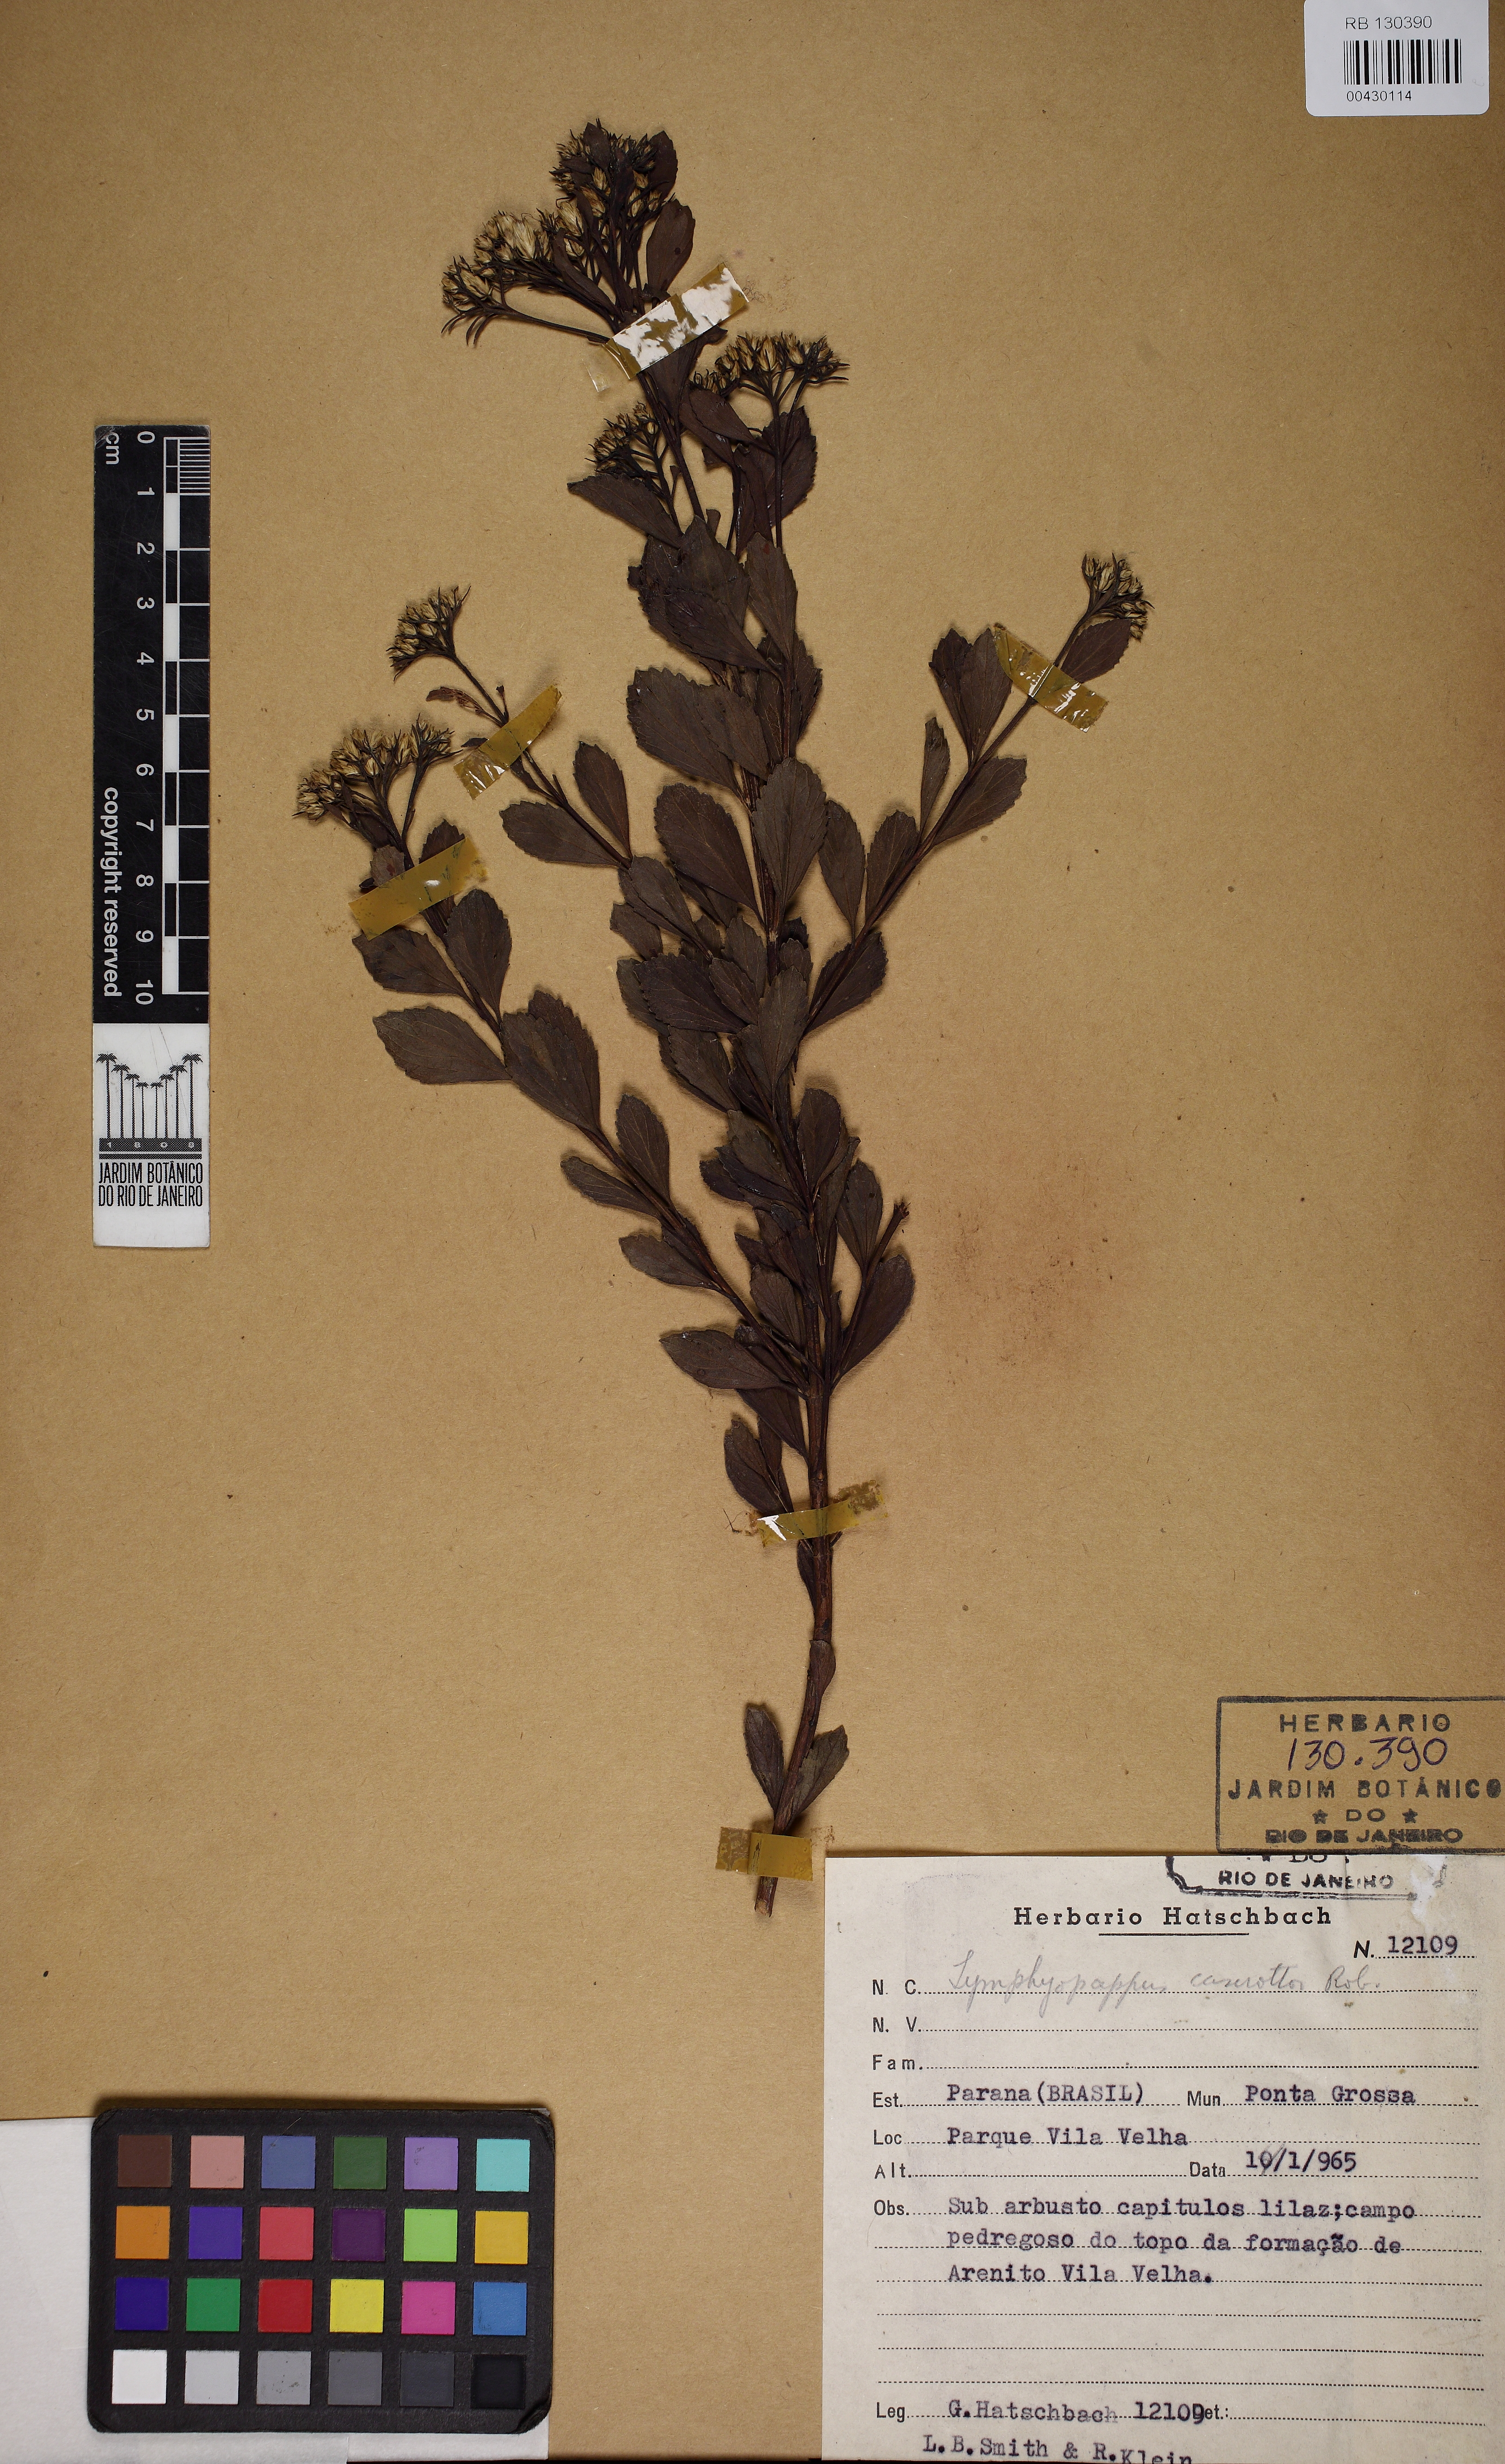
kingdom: Plantae
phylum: Tracheophyta
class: Magnoliopsida
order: Asterales
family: Asteraceae
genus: Symphyopappus
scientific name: Symphyopappus cuneatus
